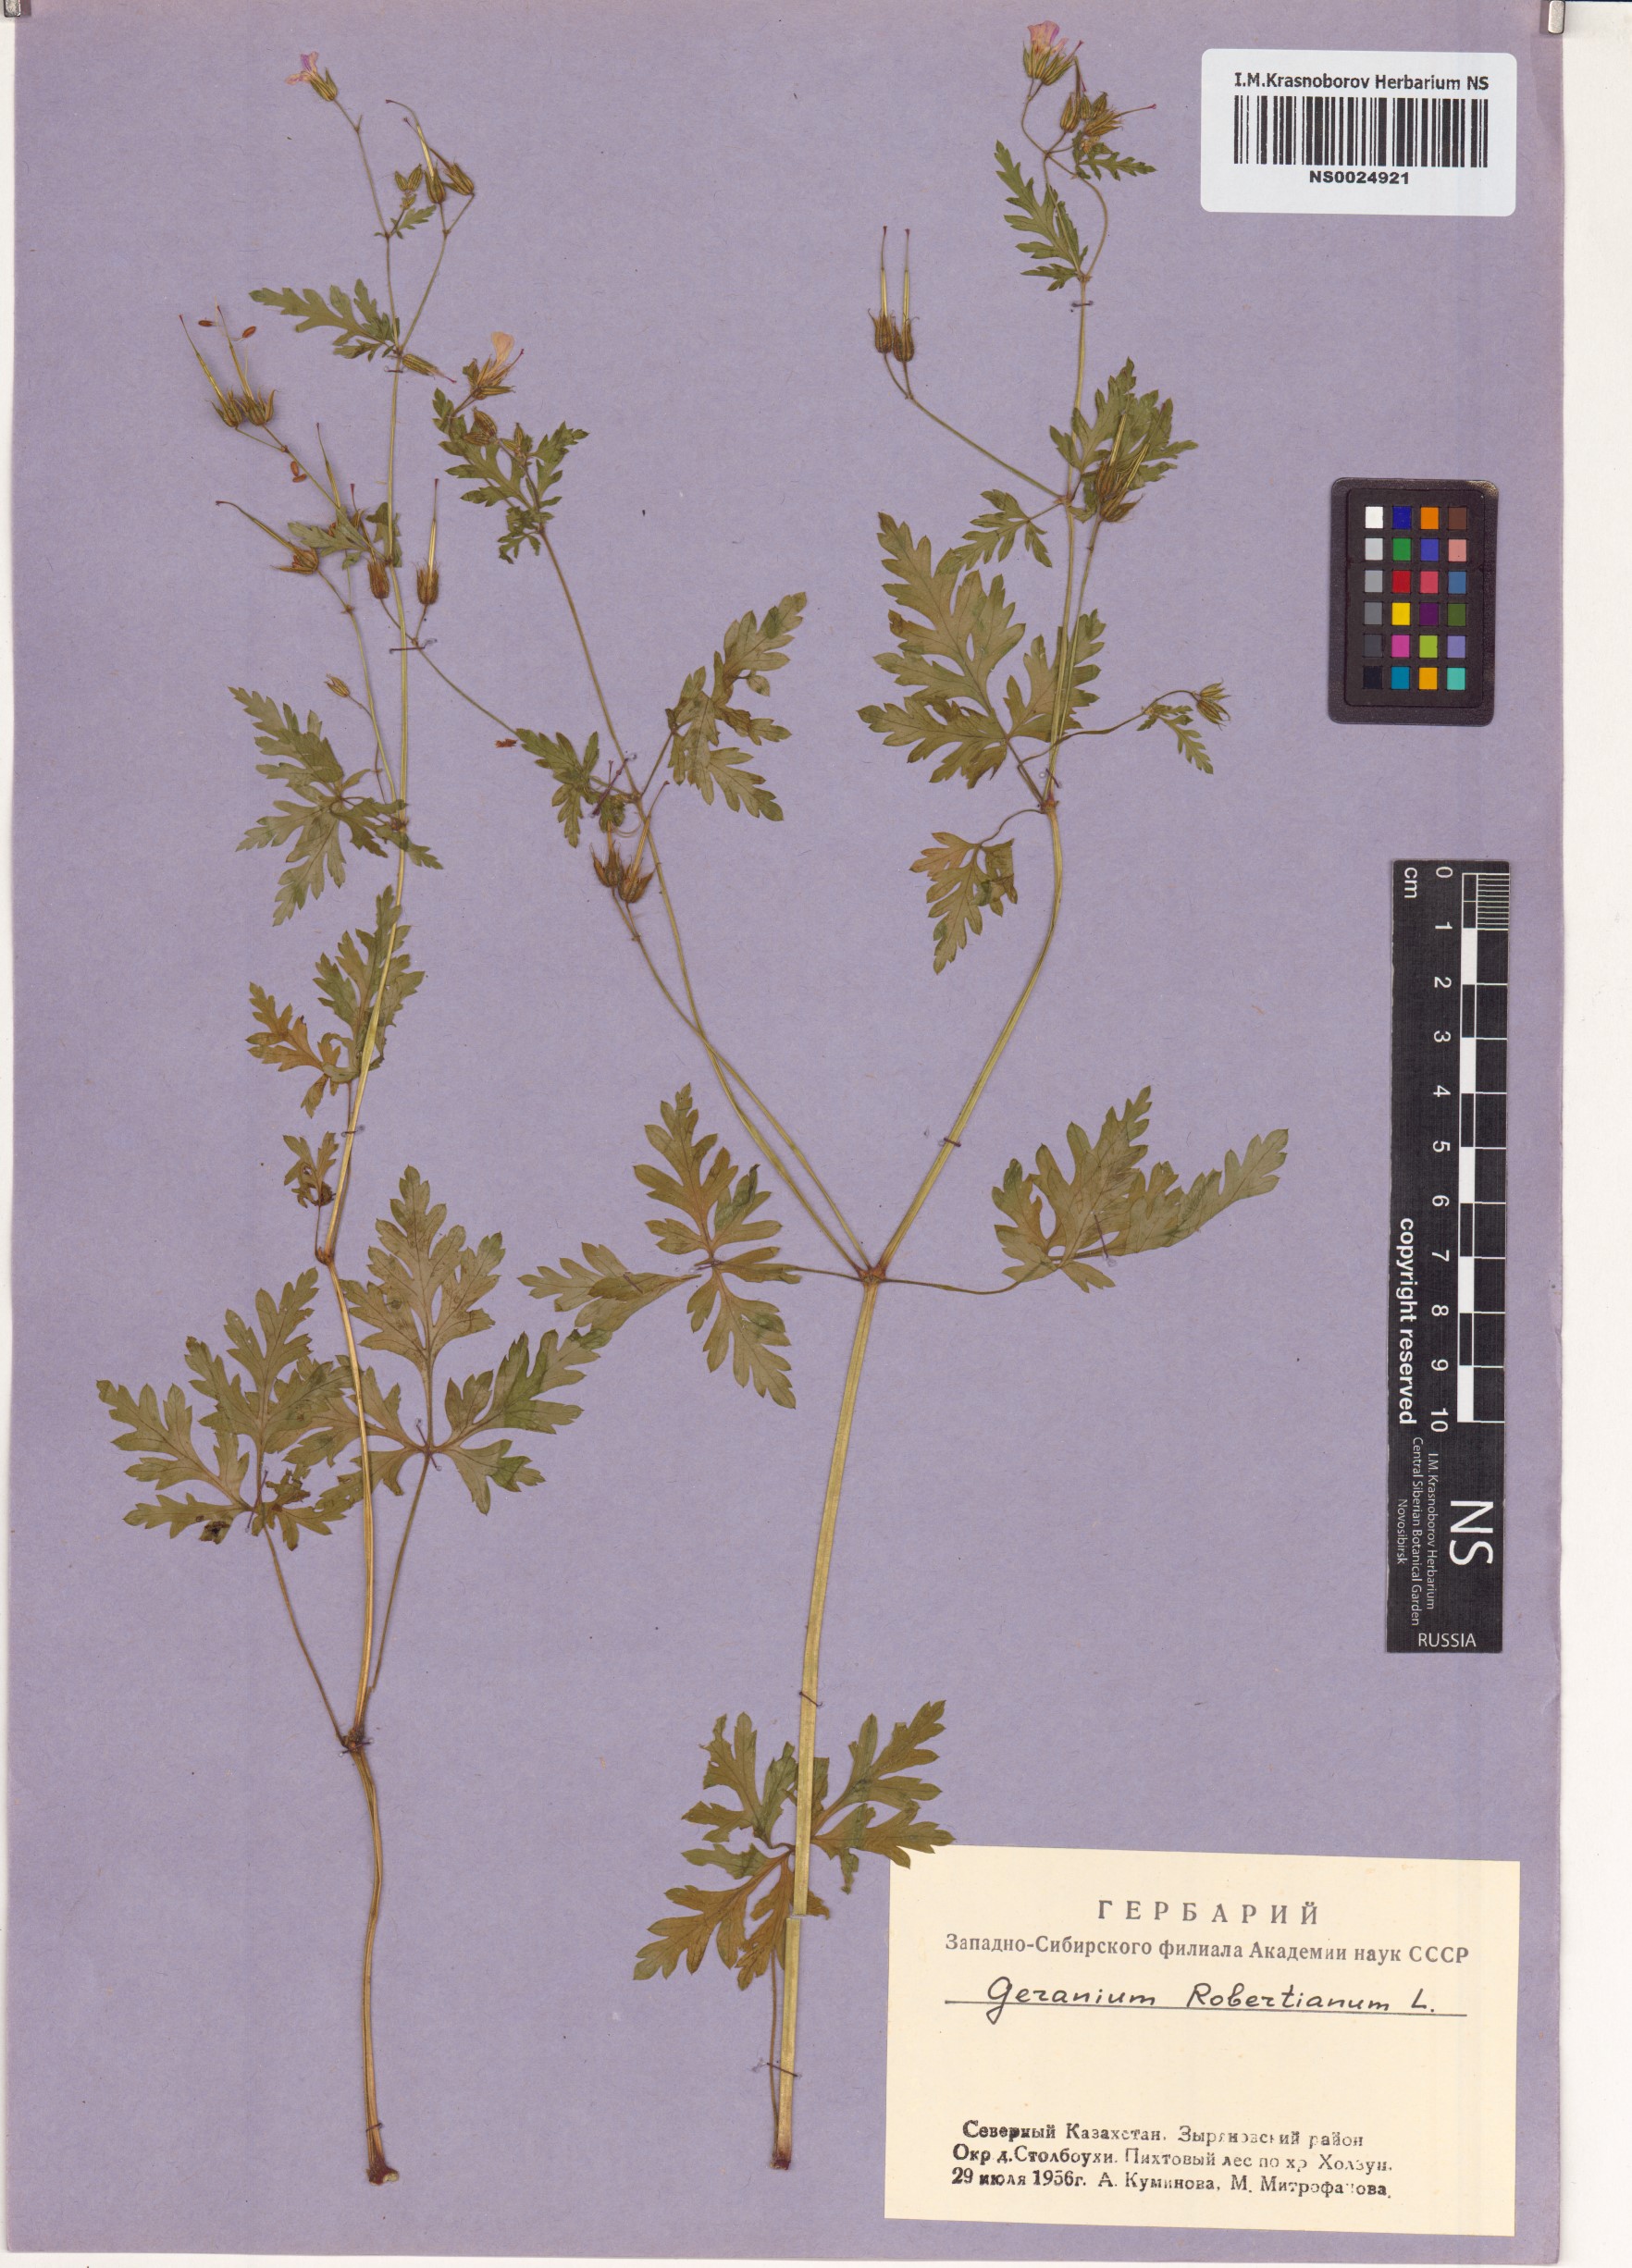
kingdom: Plantae
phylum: Tracheophyta
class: Magnoliopsida
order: Geraniales
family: Geraniaceae
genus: Geranium
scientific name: Geranium robertianum
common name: Herb-robert
